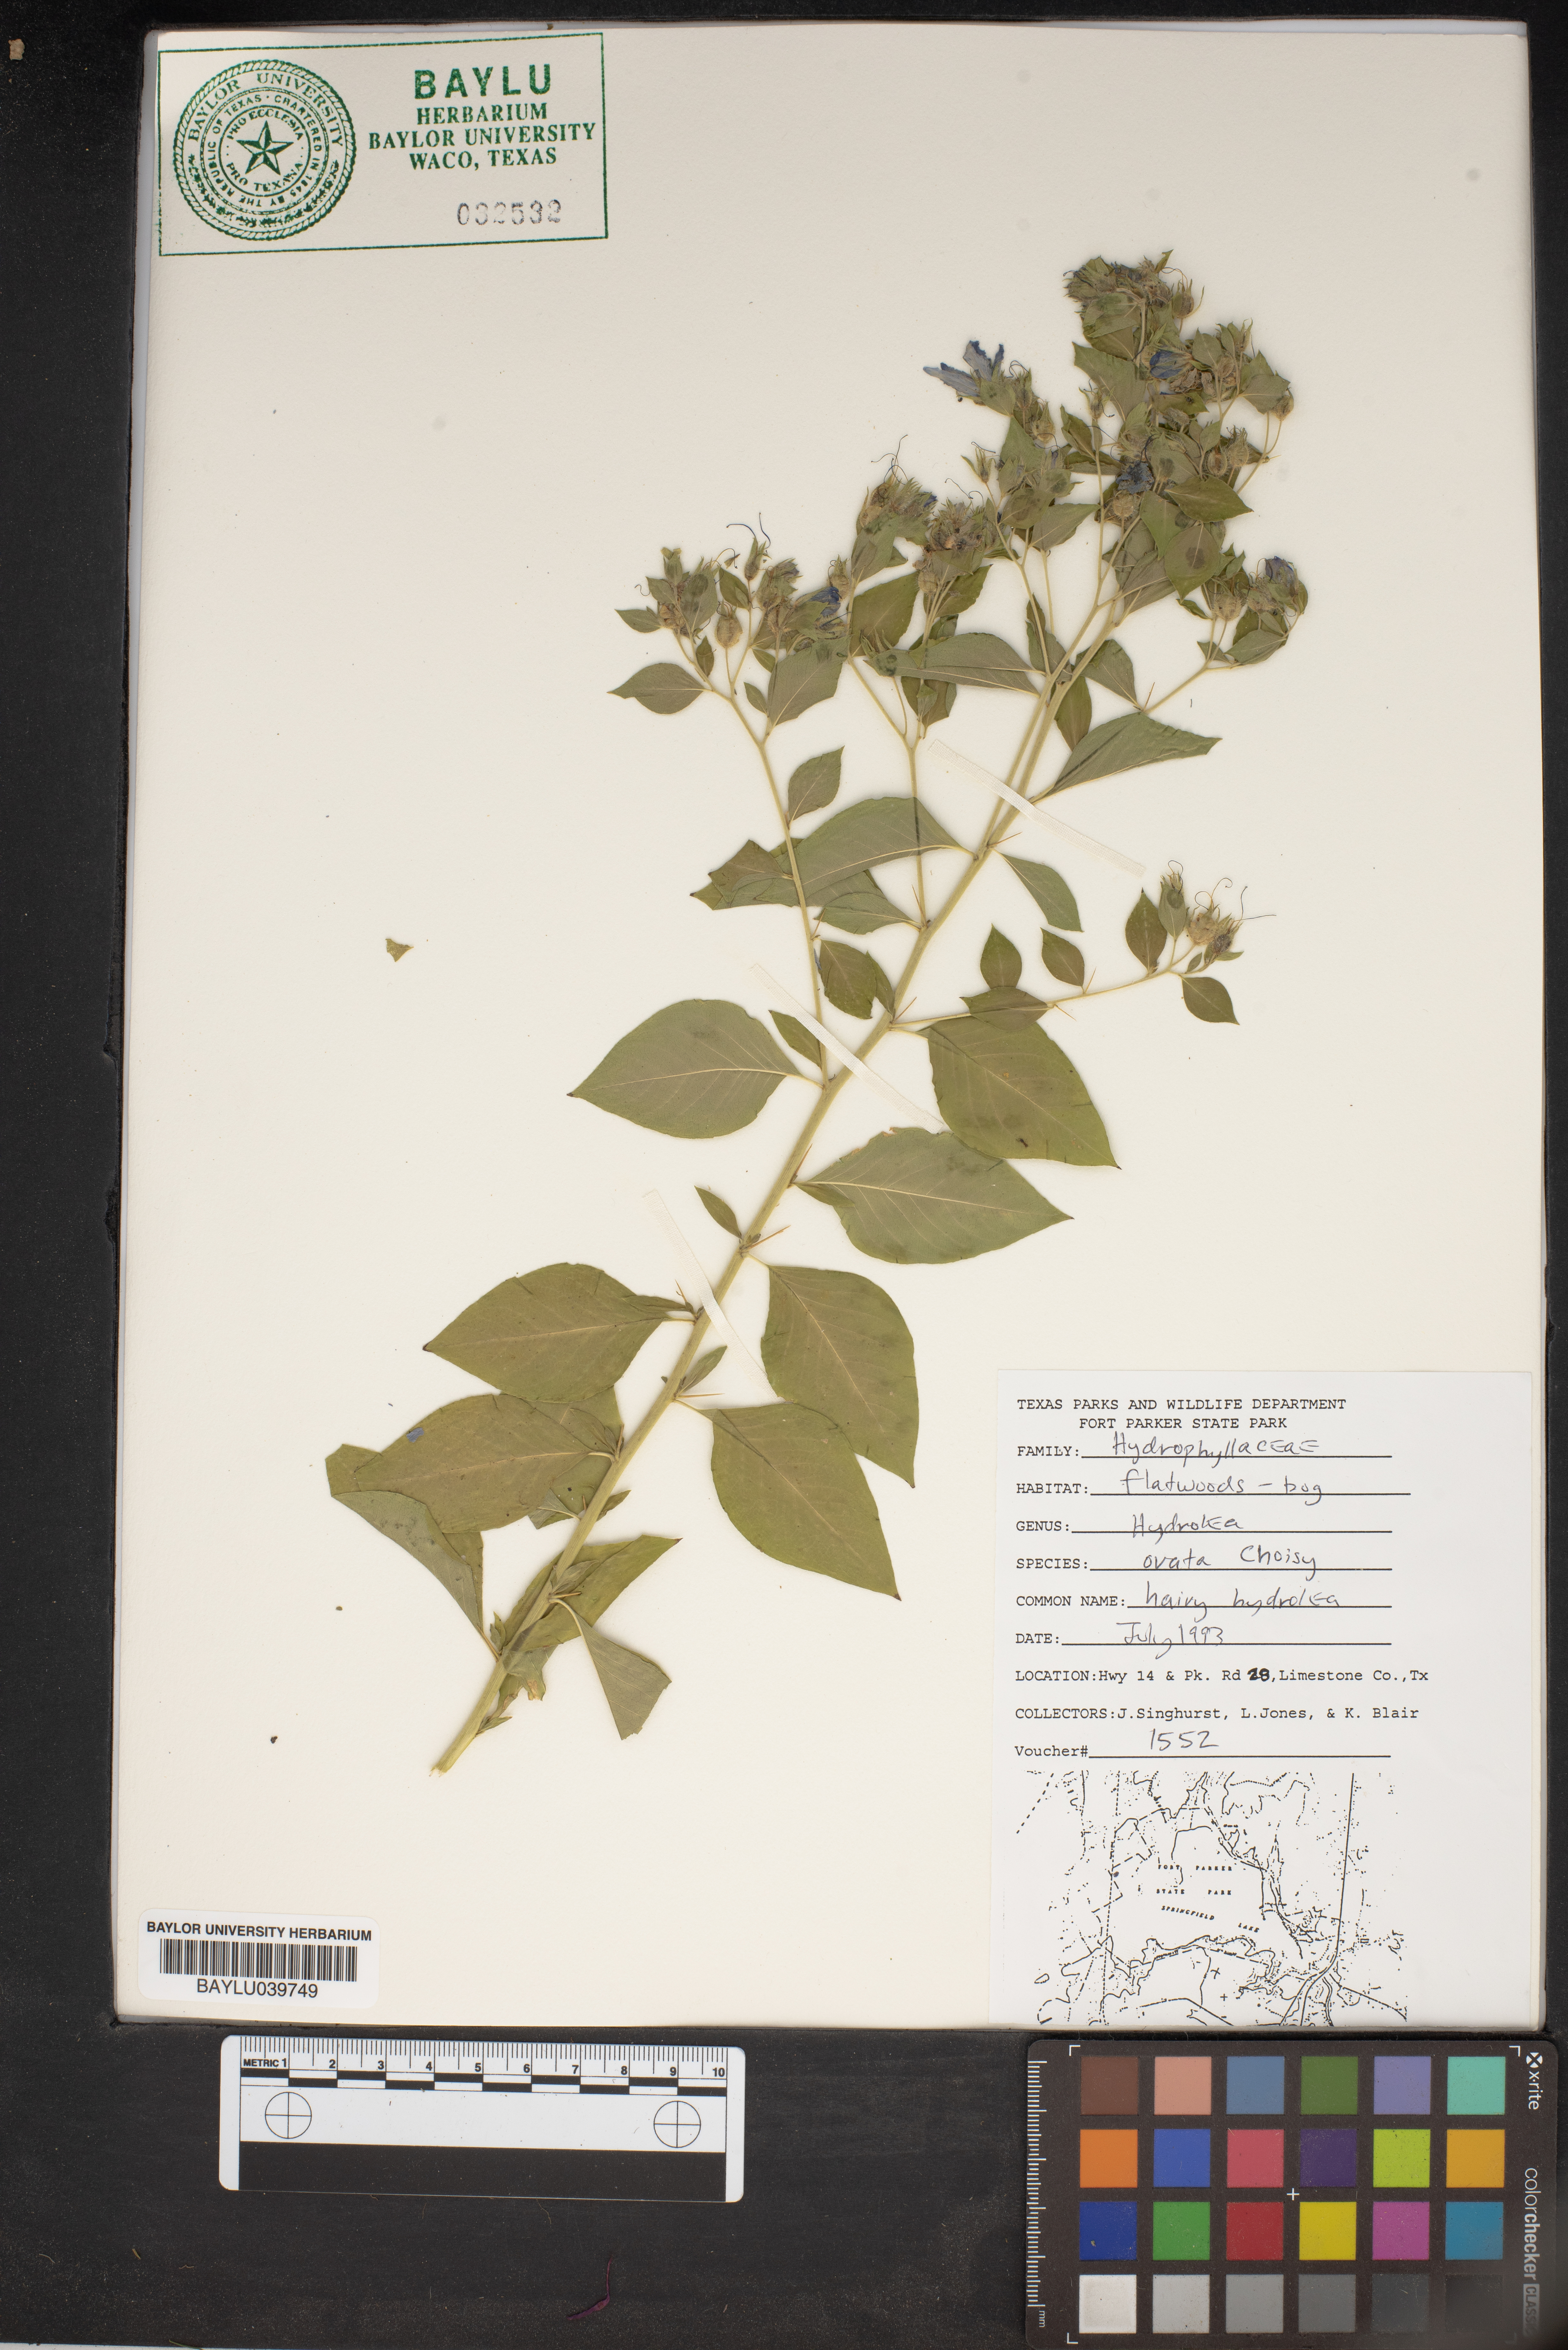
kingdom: Plantae
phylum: Tracheophyta
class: Magnoliopsida
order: Solanales
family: Hydroleaceae
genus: Hydrolea
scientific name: Hydrolea ovata
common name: Ovate false fiddleleaf
